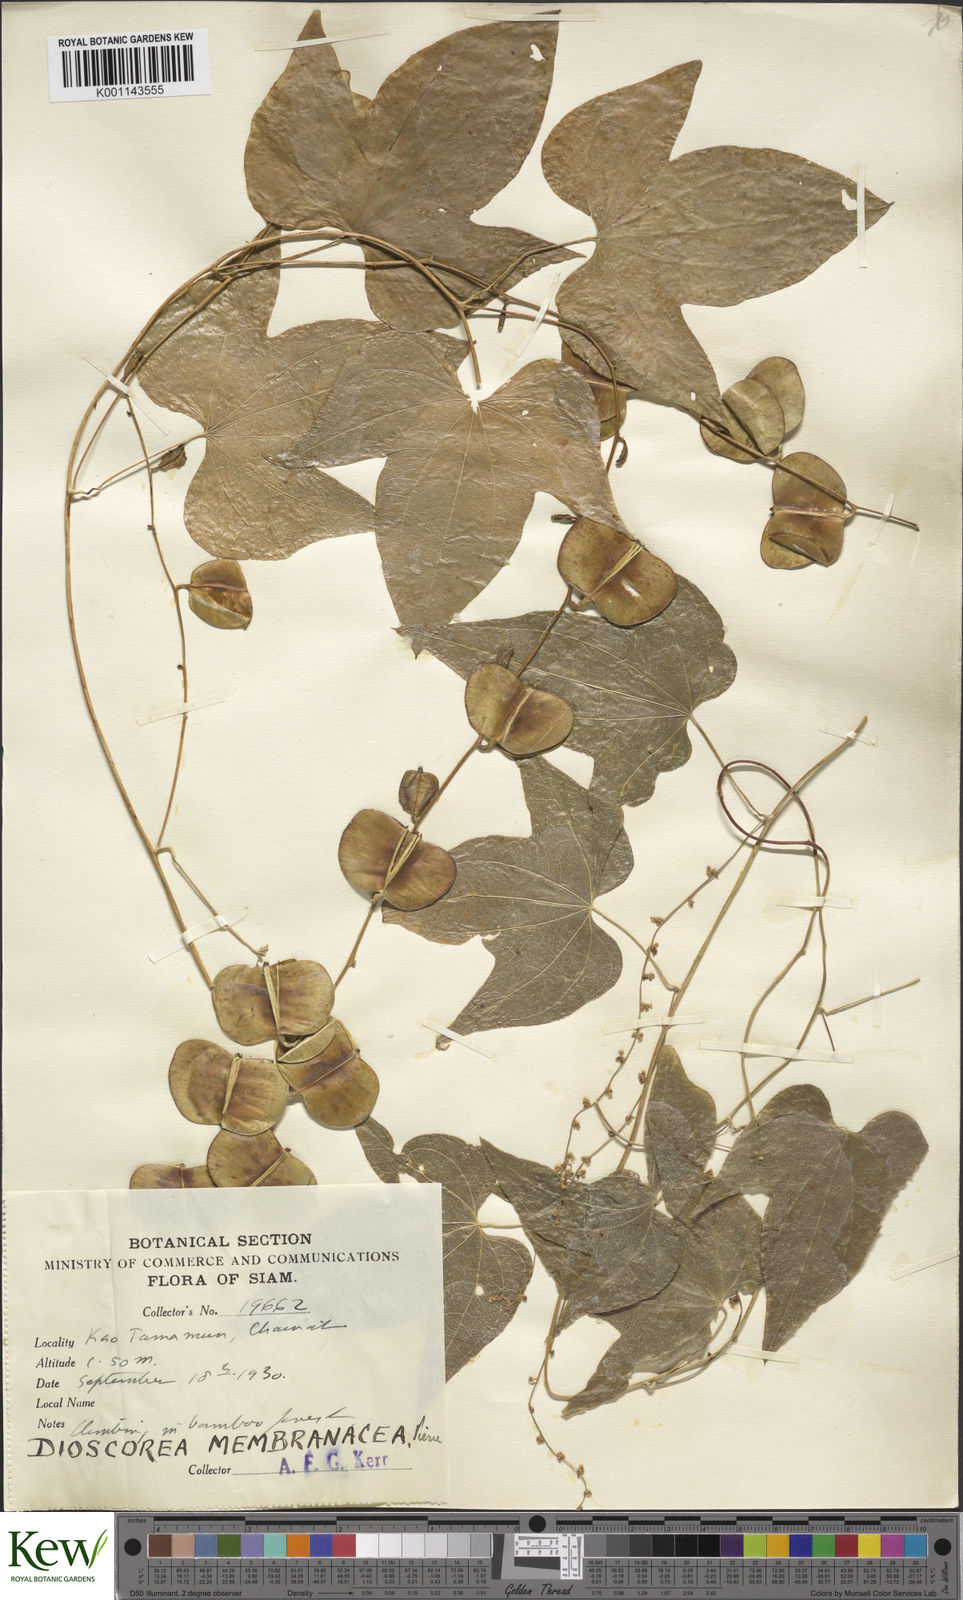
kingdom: Plantae
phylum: Tracheophyta
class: Liliopsida
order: Dioscoreales
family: Dioscoreaceae
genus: Dioscorea
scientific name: Dioscorea membranacea
